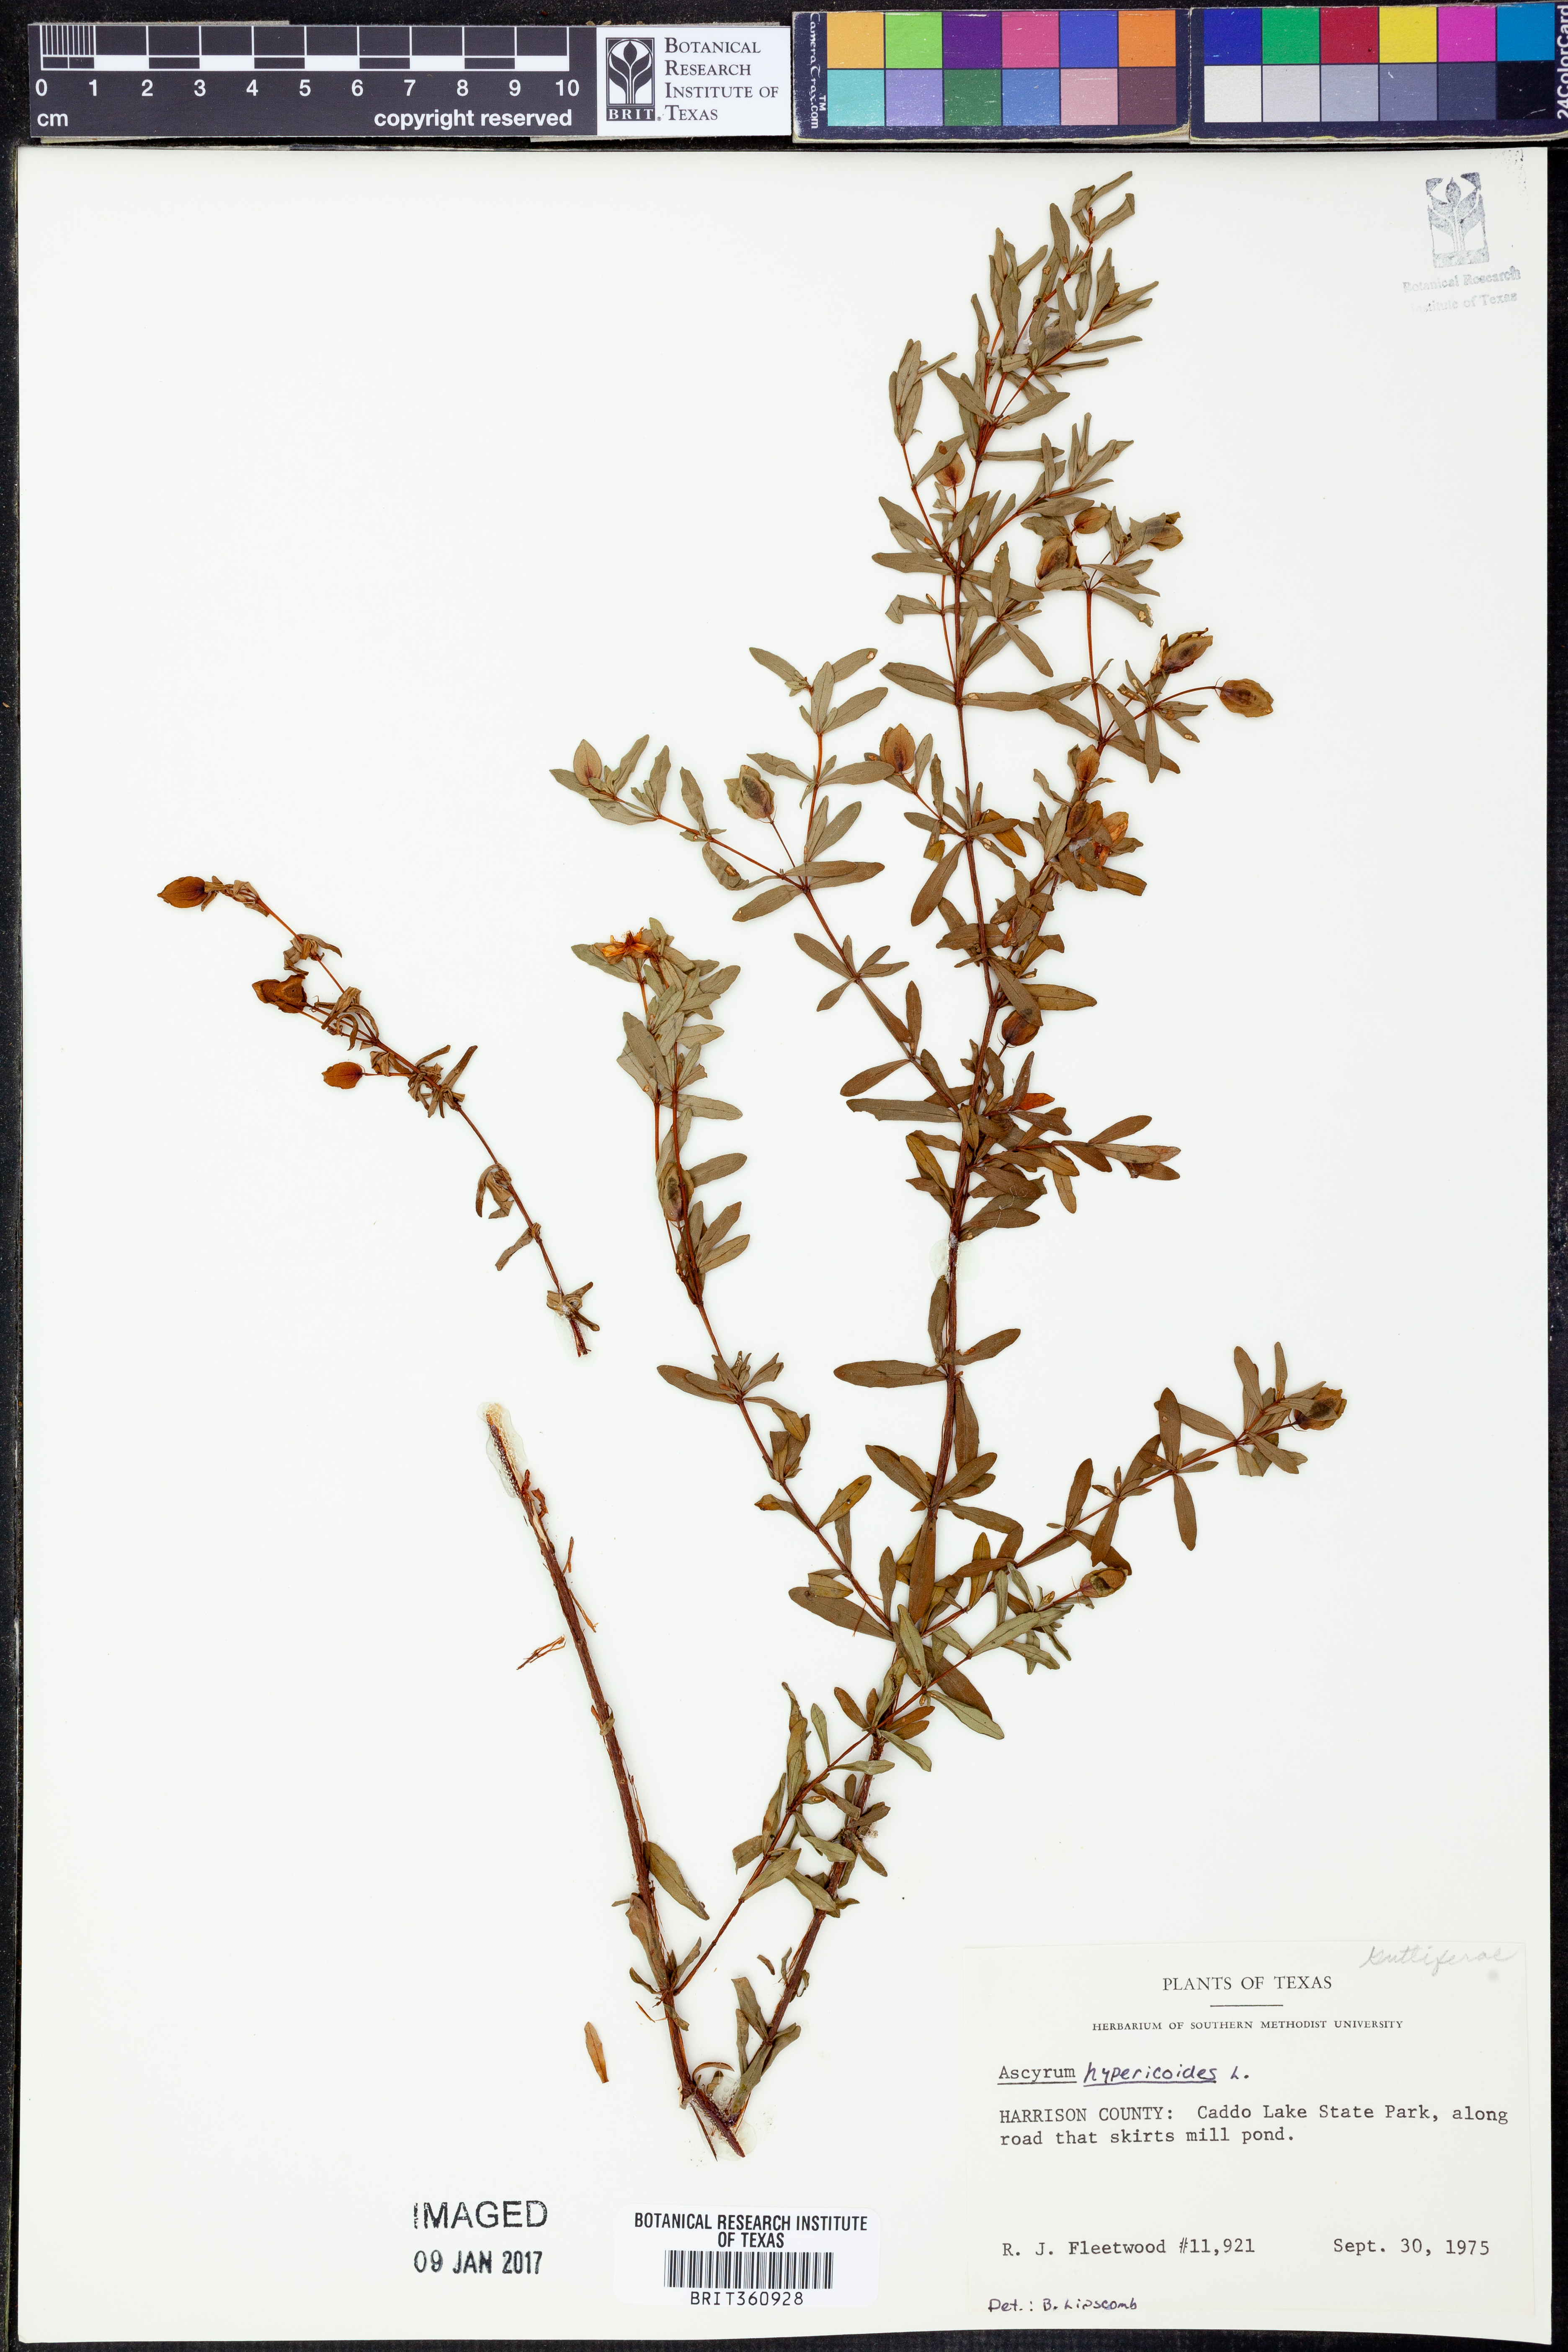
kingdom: Plantae
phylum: Tracheophyta
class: Magnoliopsida
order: Malpighiales
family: Hypericaceae
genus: Hypericum
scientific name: Hypericum hypericoides
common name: St. andrew's cross
